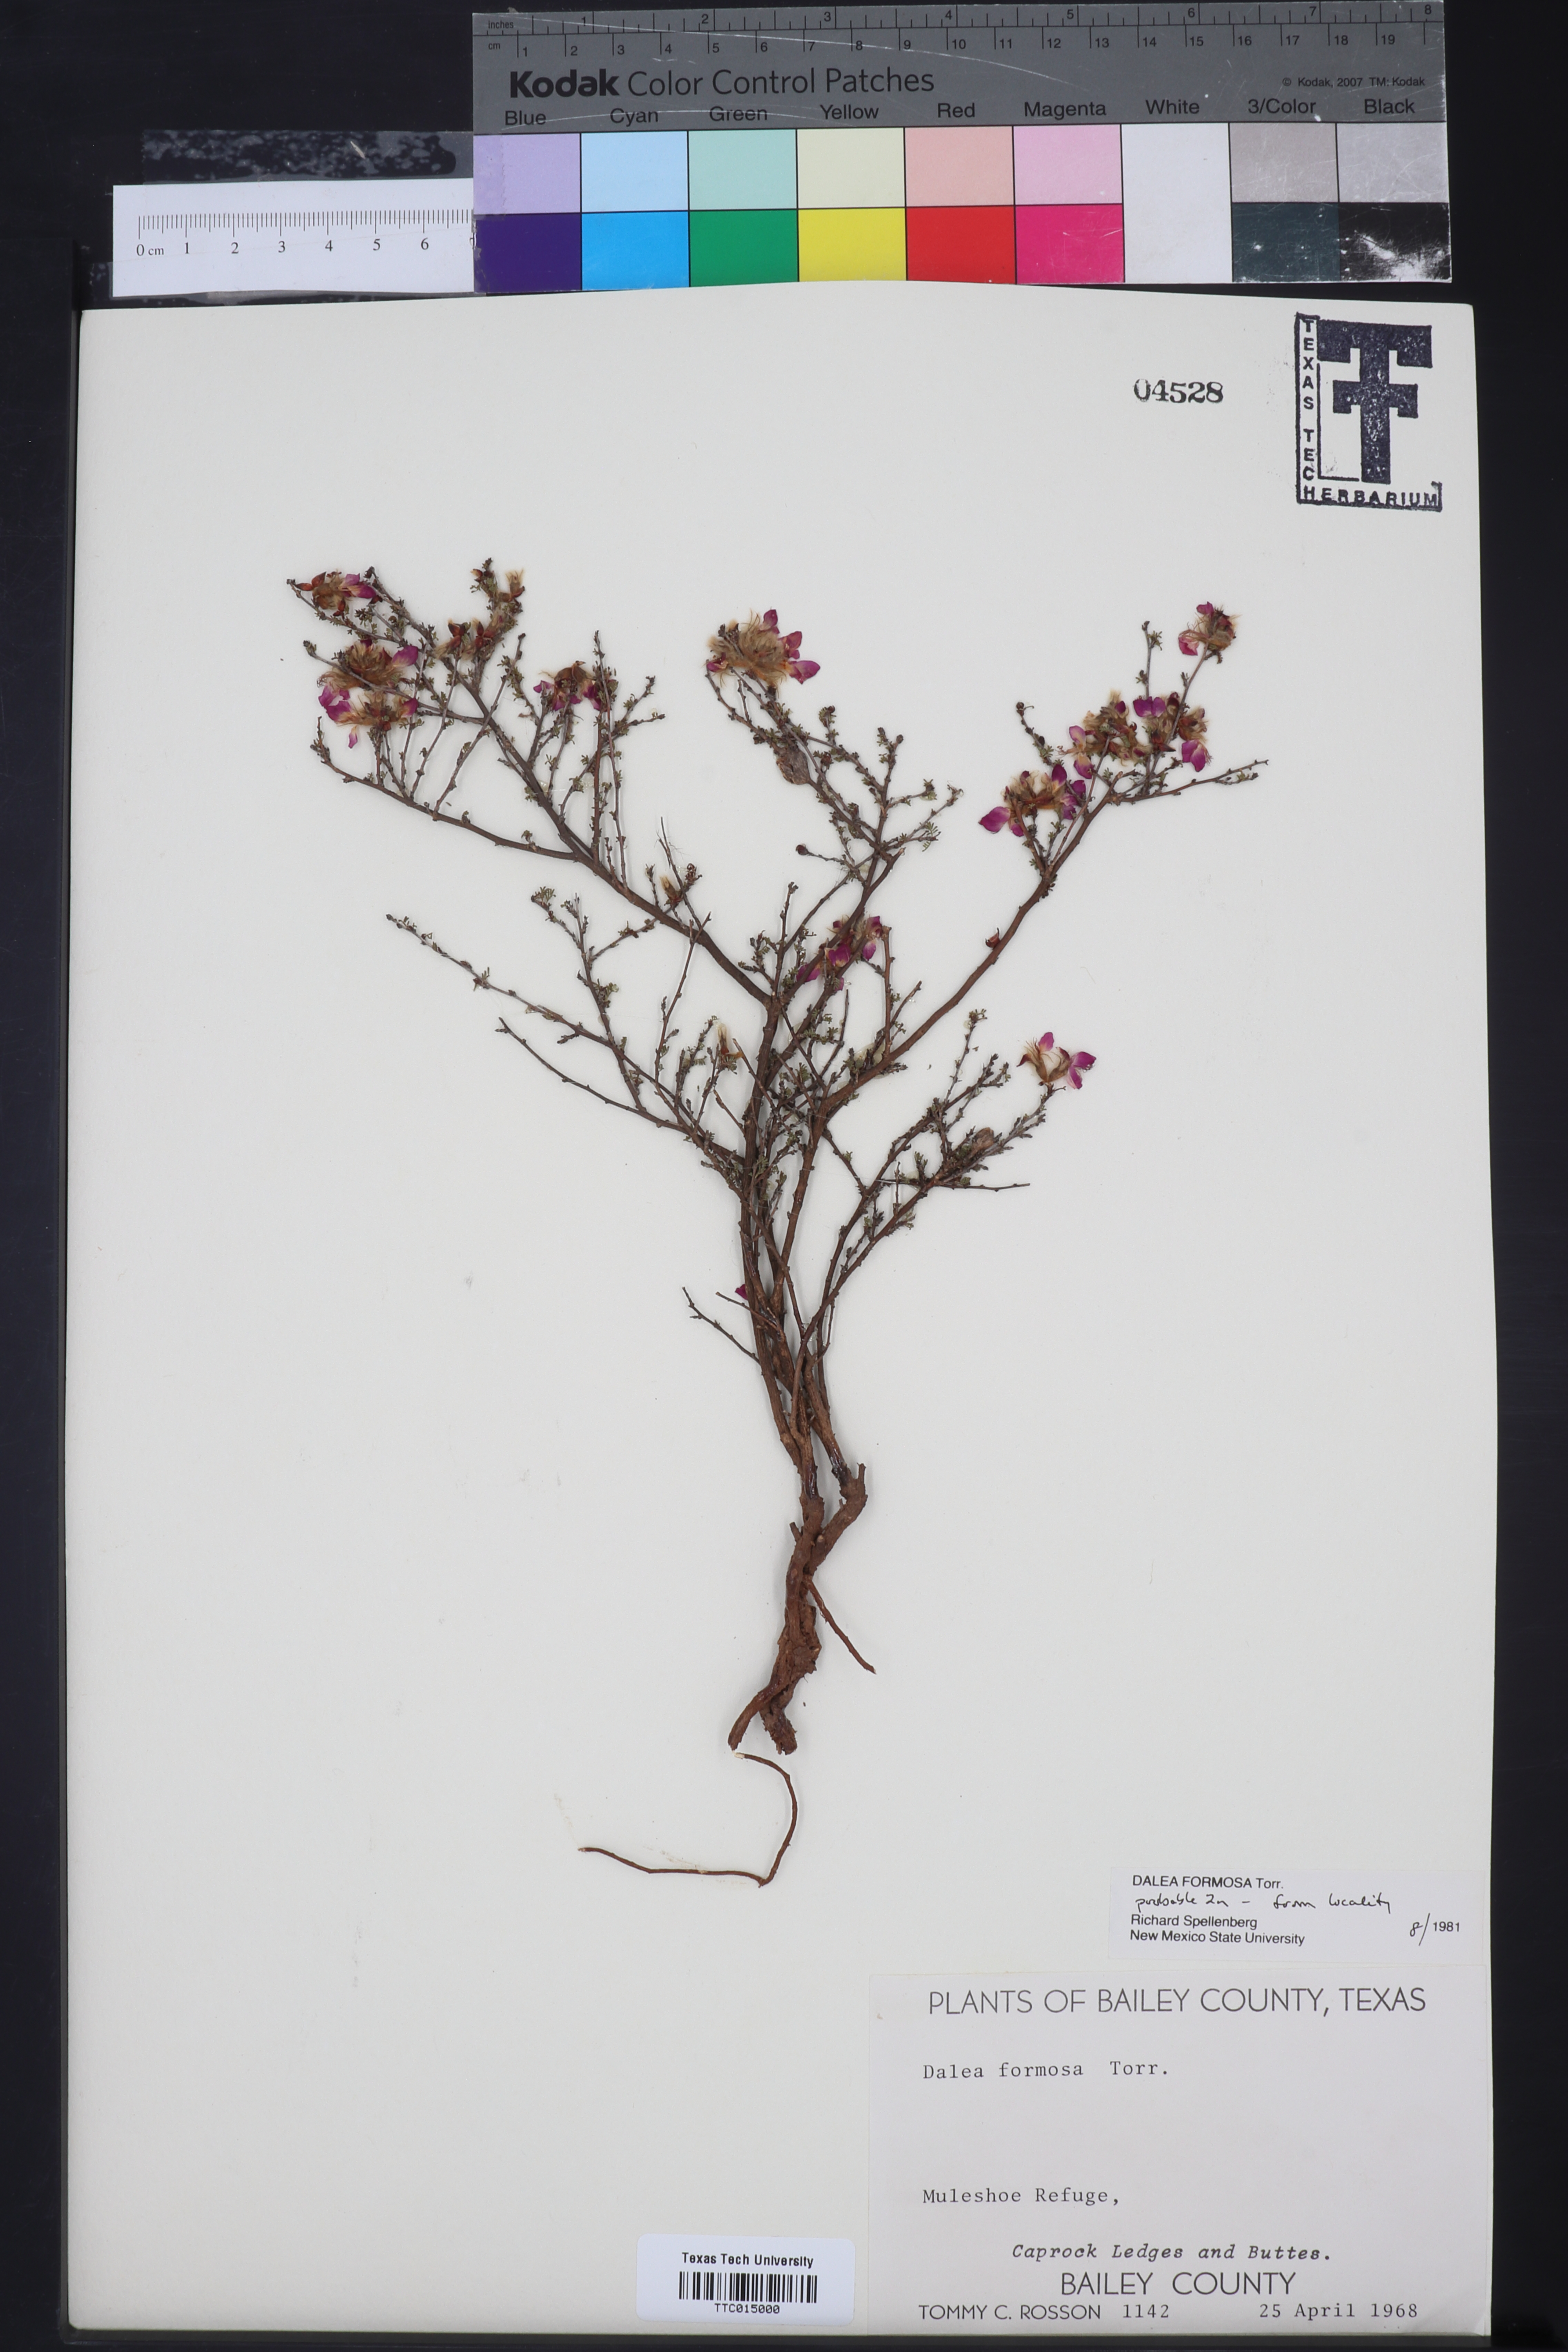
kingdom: Plantae
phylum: Tracheophyta
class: Magnoliopsida
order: Fabales
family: Fabaceae
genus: Dalea
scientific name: Dalea formosa
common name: Feather-plume dalea
